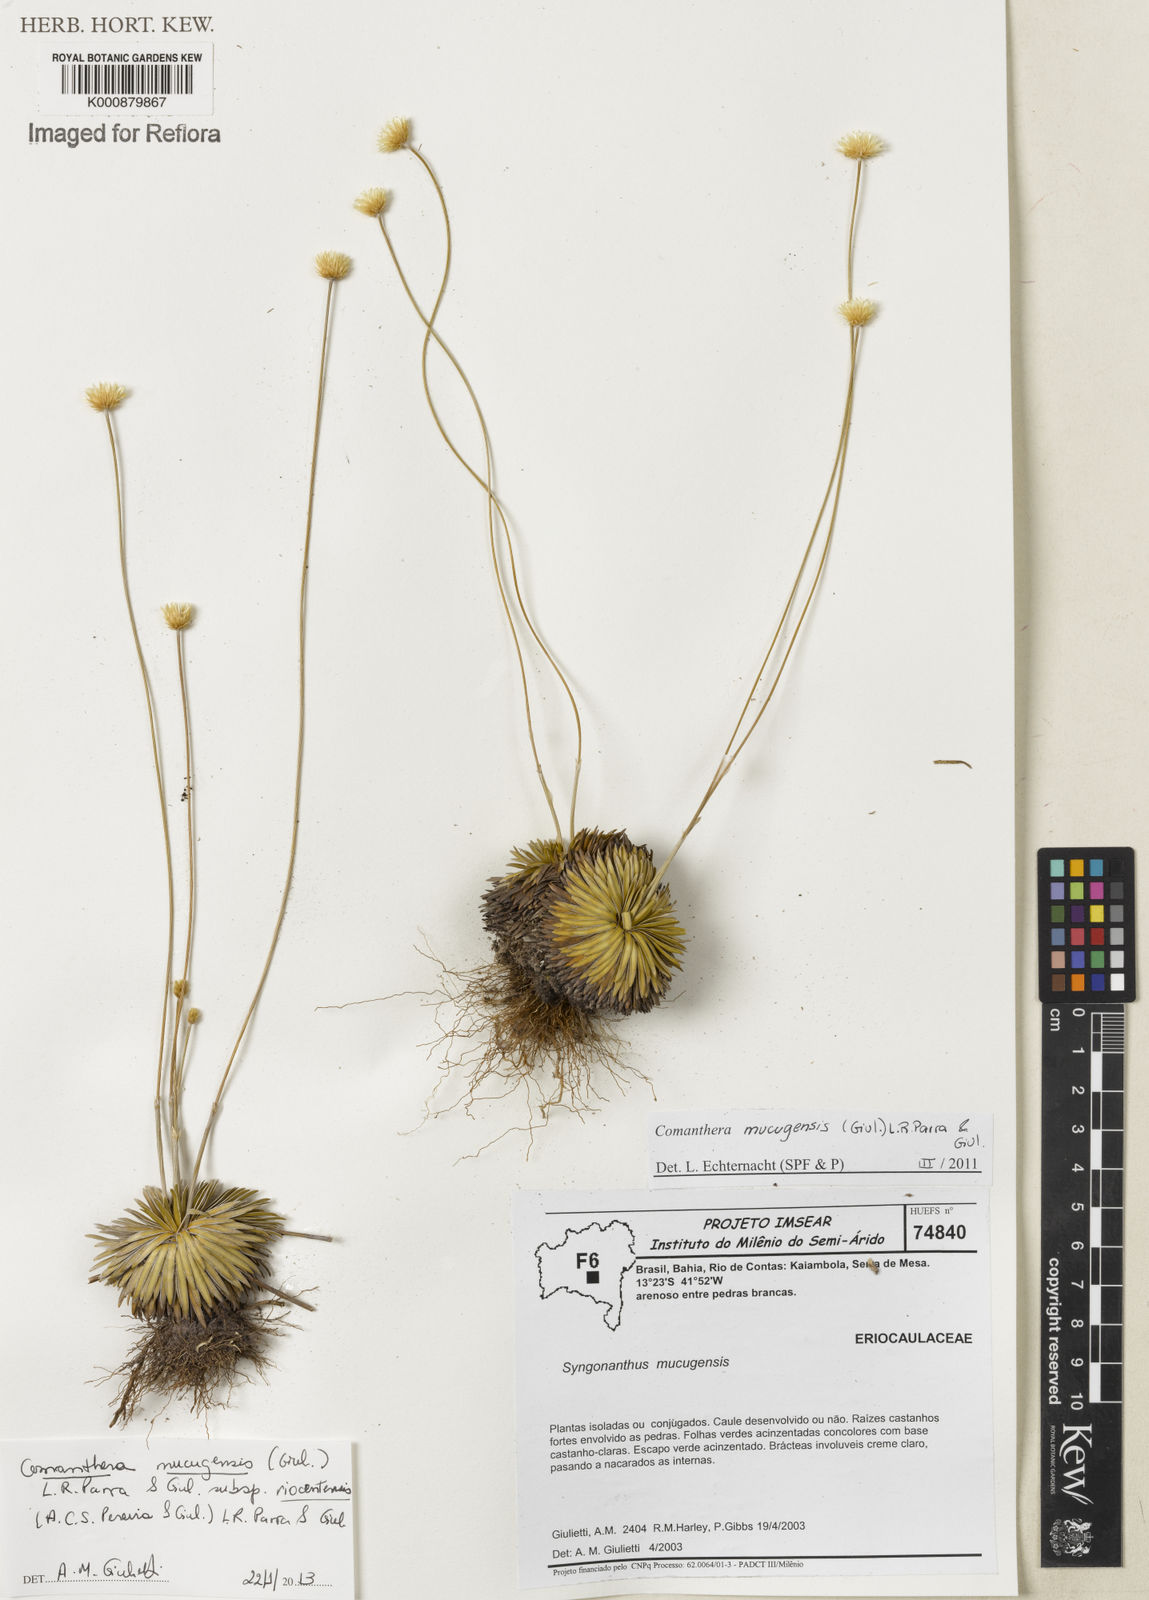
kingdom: Plantae
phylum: Tracheophyta
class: Liliopsida
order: Poales
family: Eriocaulaceae
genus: Comanthera
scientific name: Comanthera mucugensis
